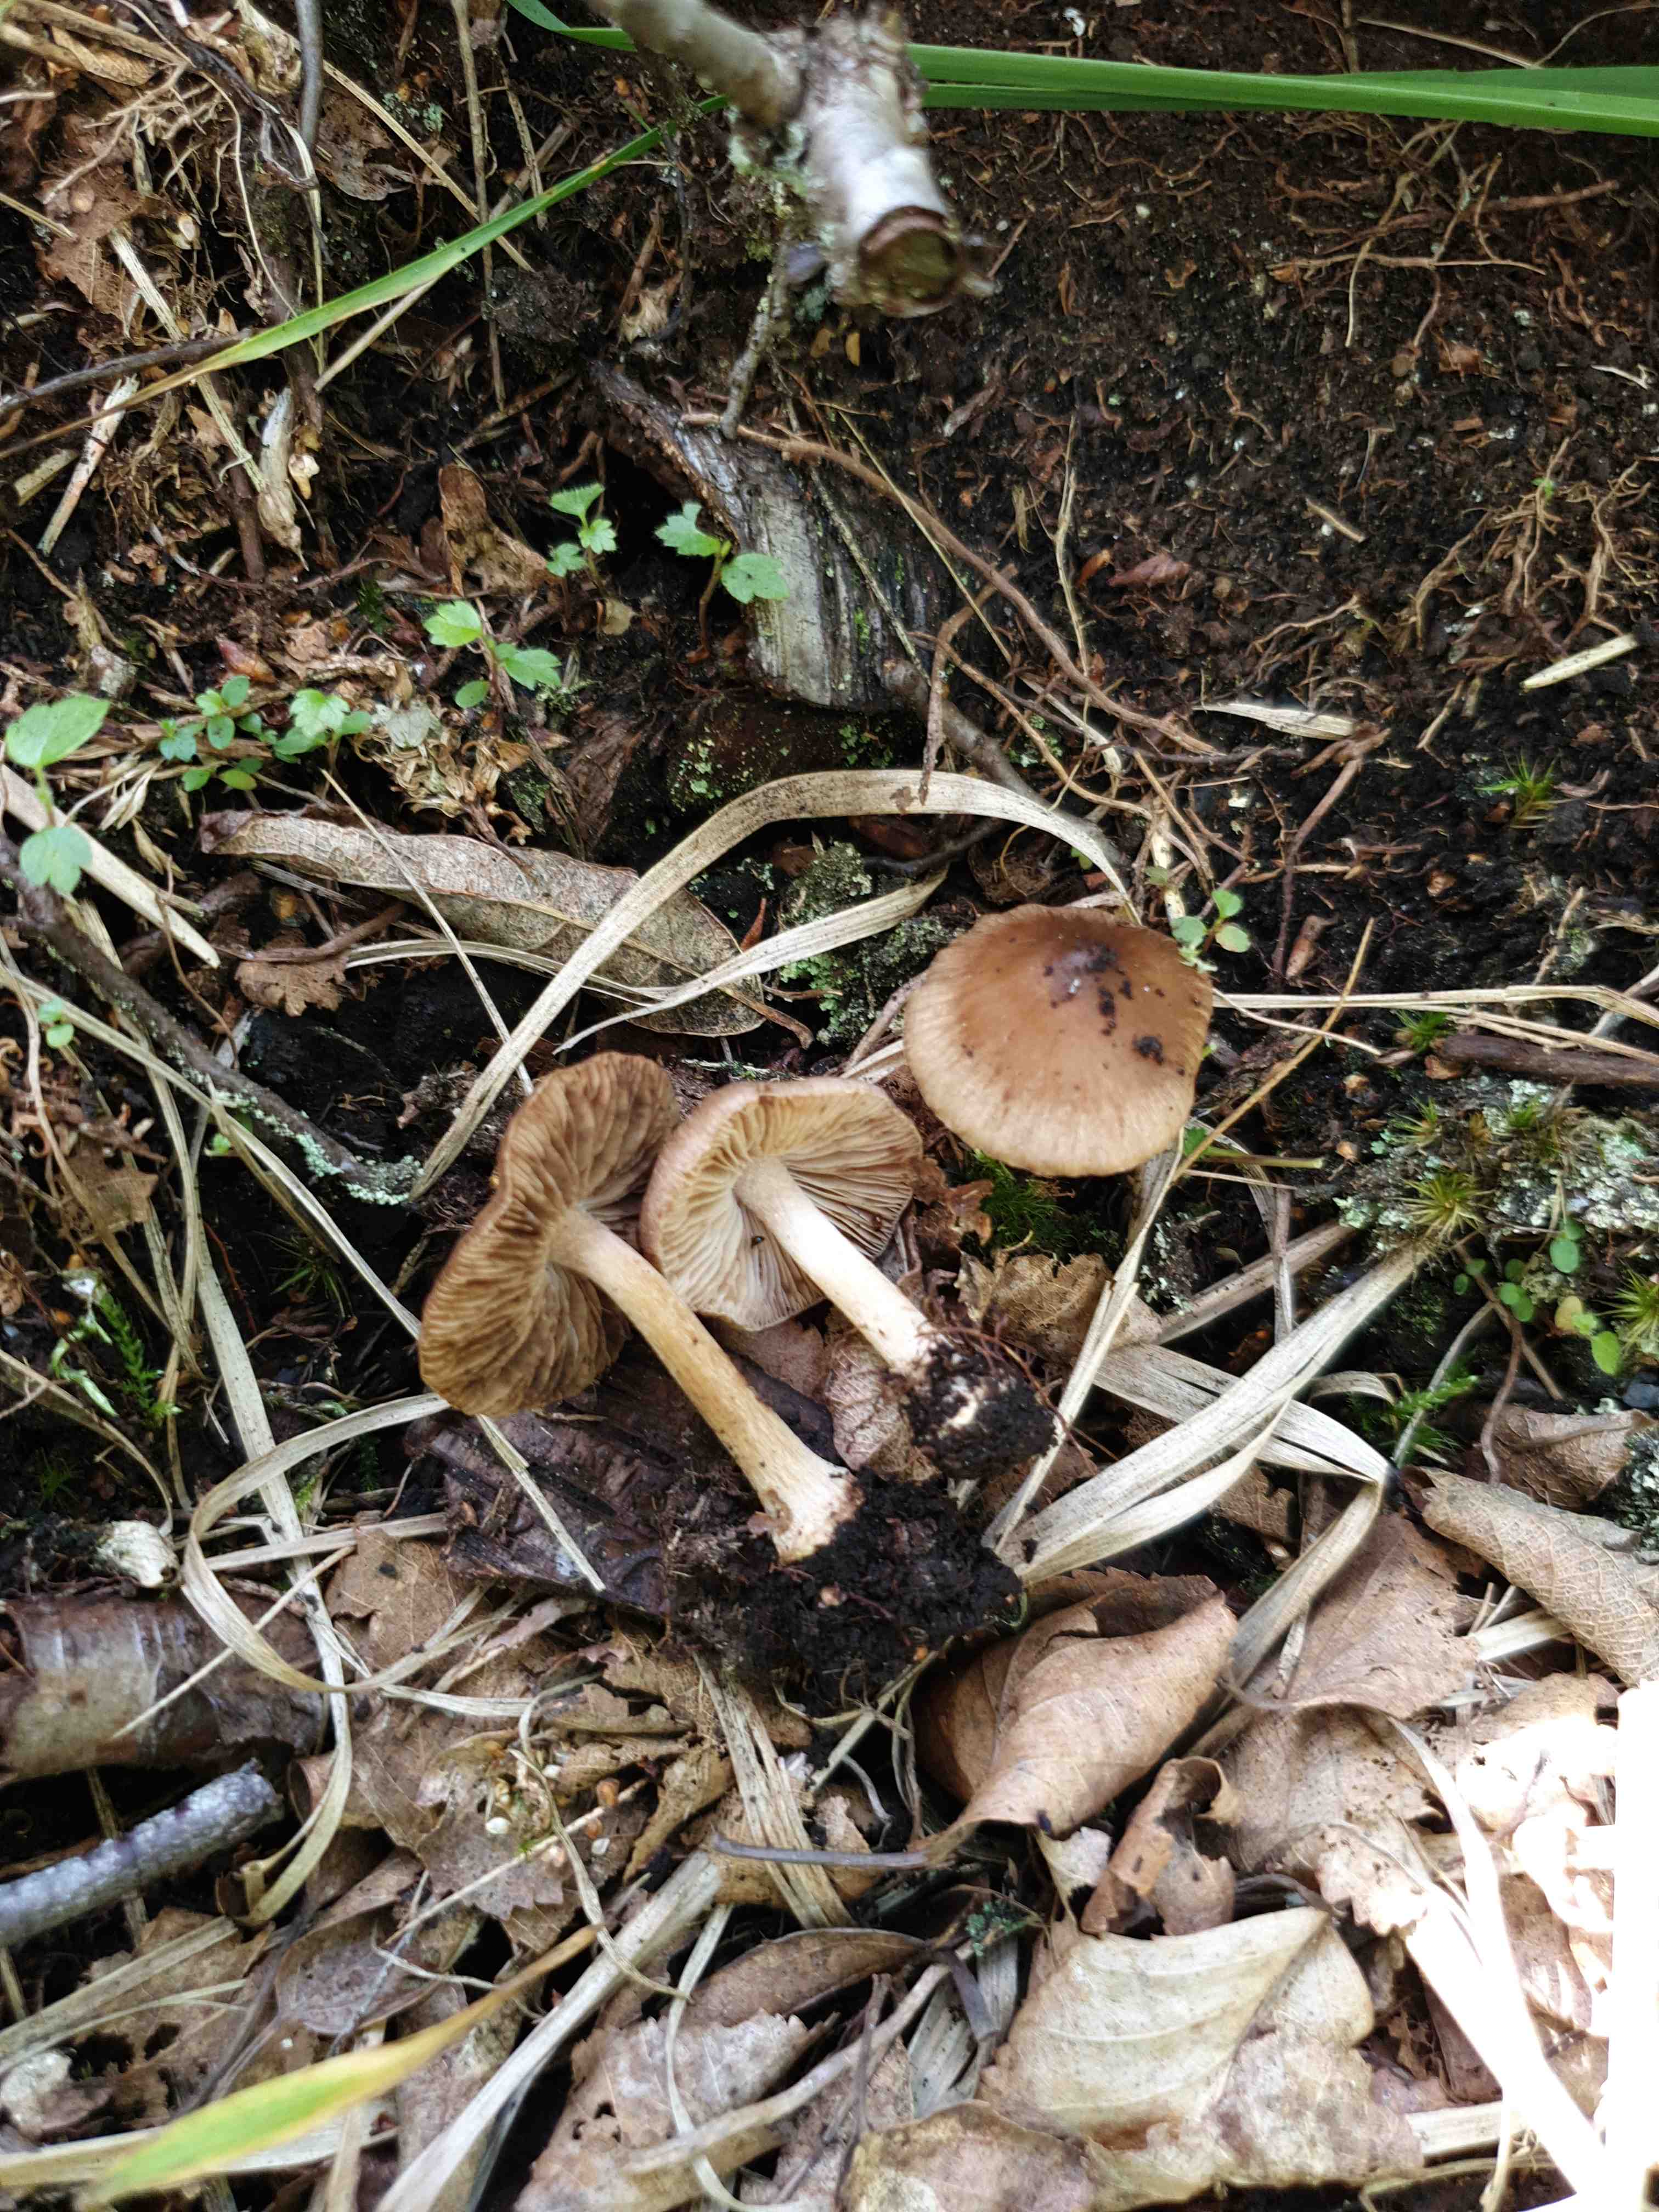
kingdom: Fungi
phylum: Basidiomycota
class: Agaricomycetes
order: Agaricales
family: Inocybaceae
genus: Inocybe
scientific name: Inocybe
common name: trævlhat
